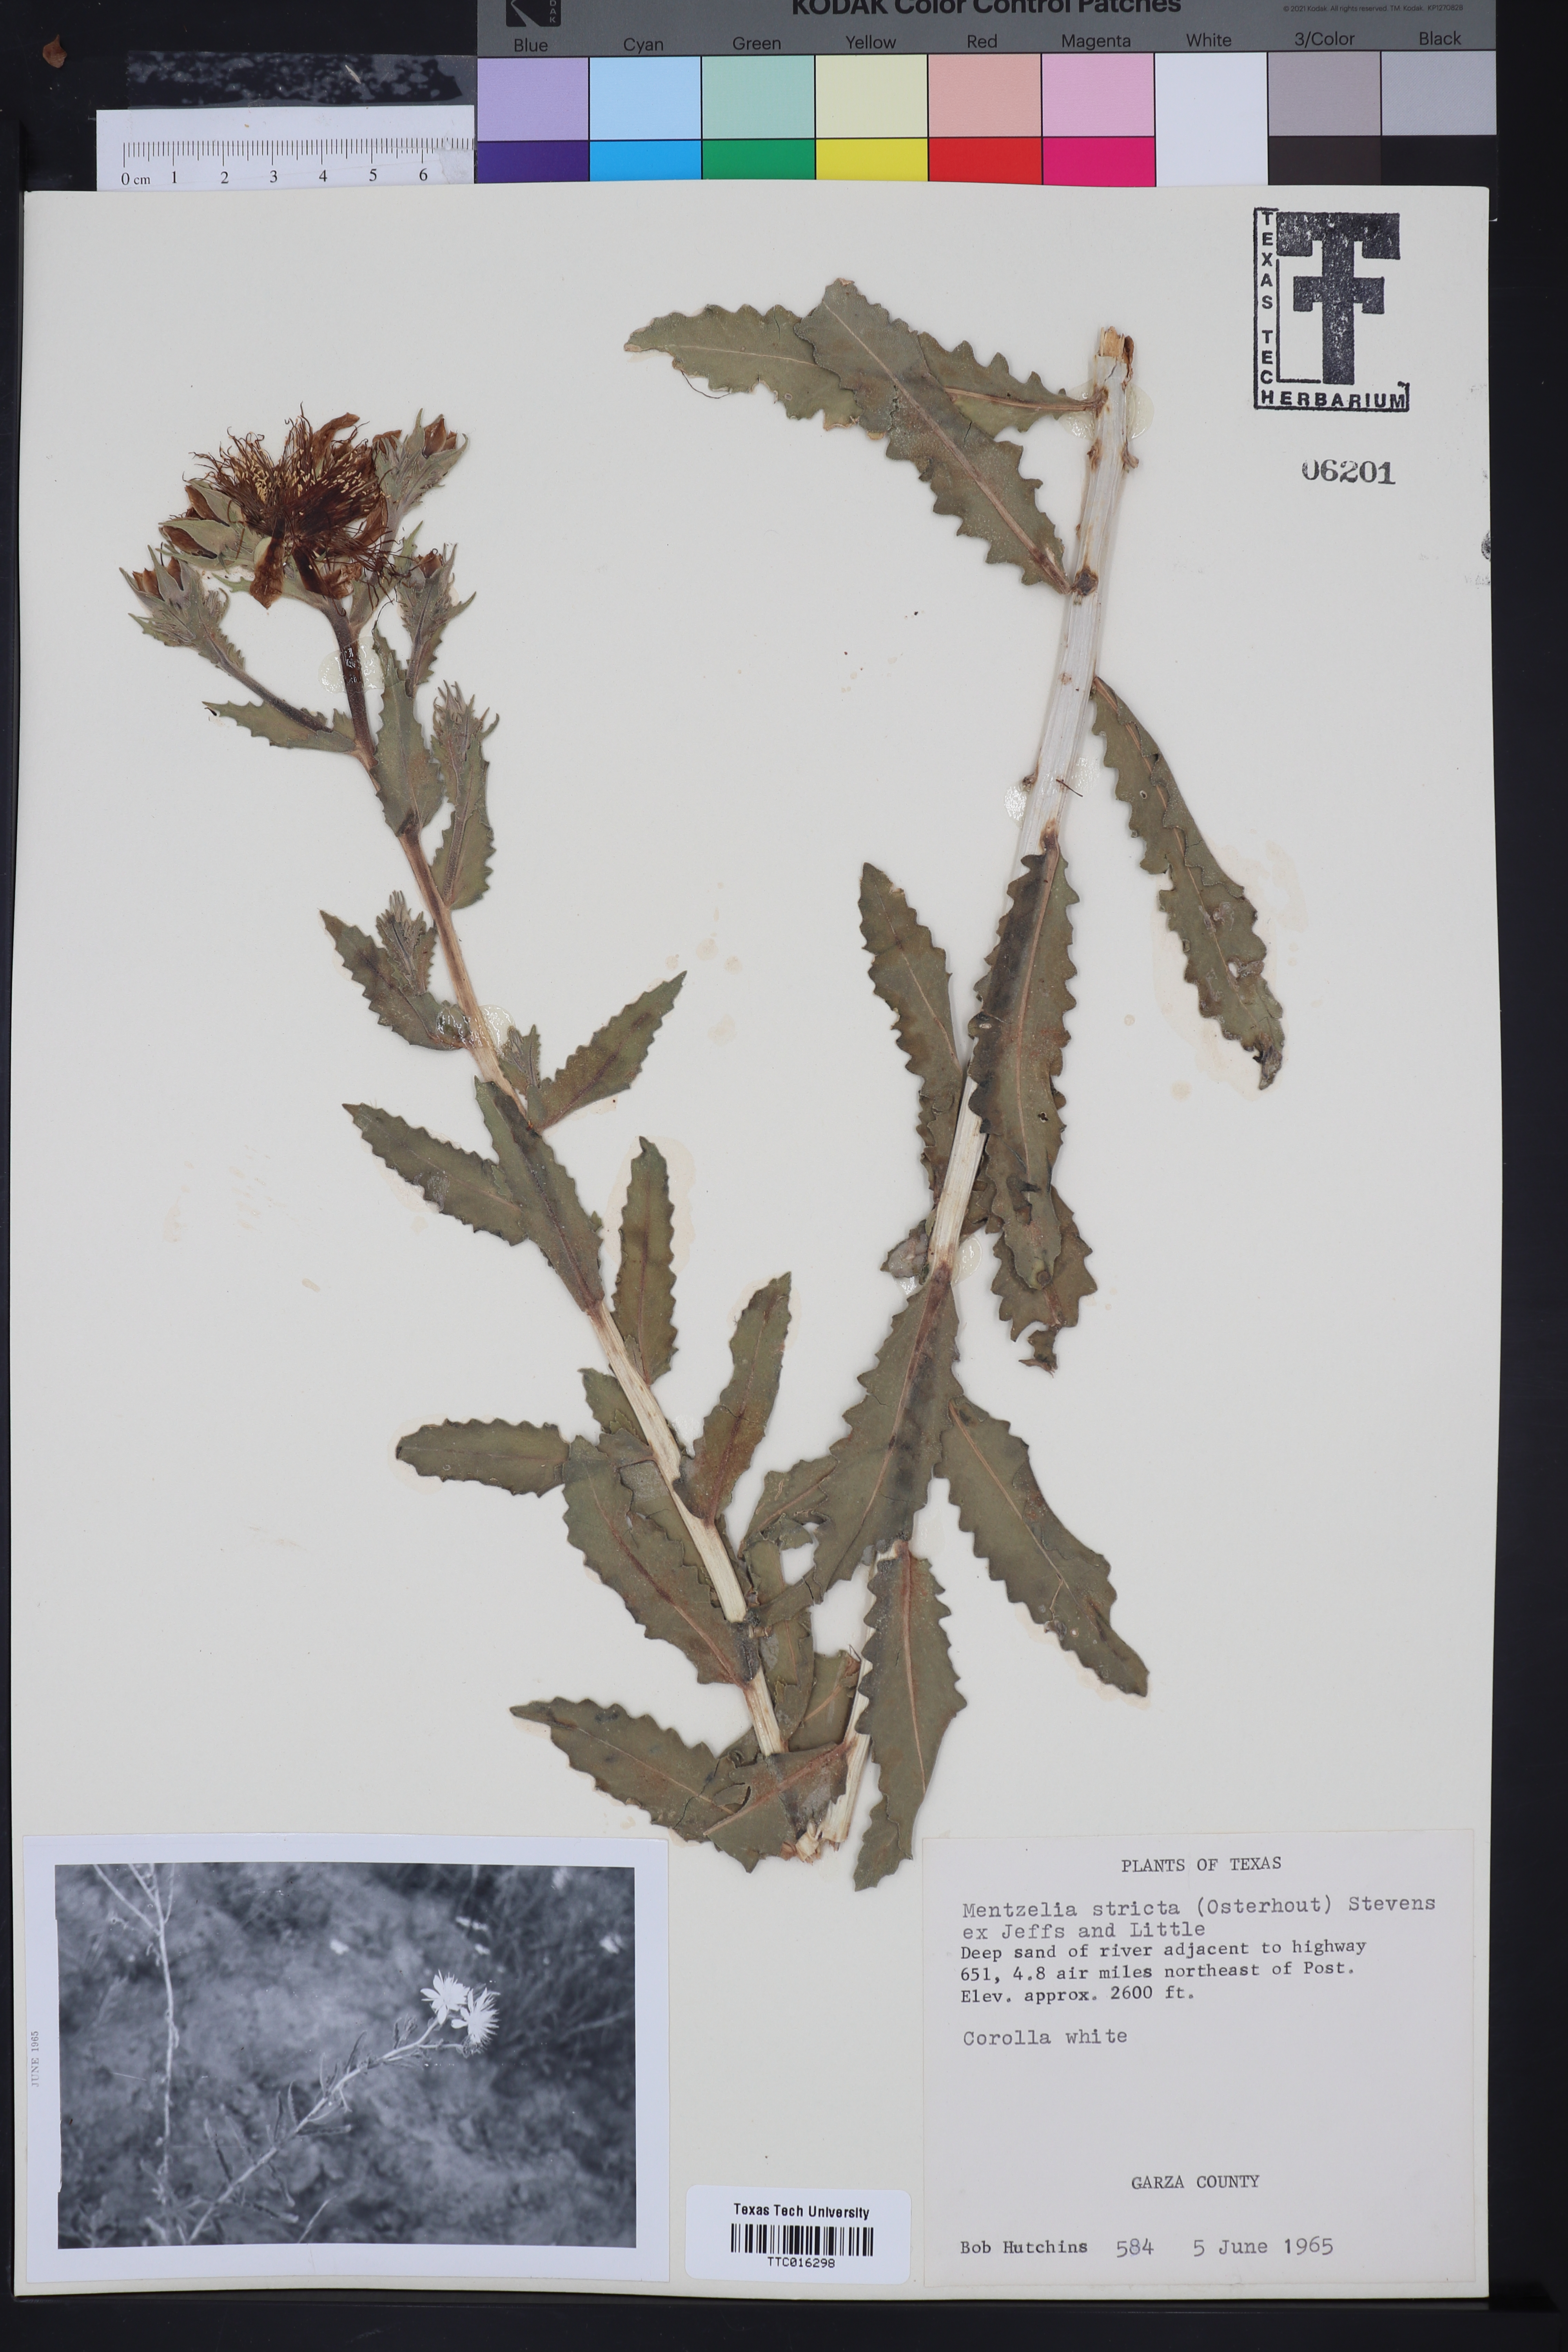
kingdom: Plantae
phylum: Tracheophyta
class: Magnoliopsida
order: Cornales
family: Loasaceae
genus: Mentzelia
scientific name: Mentzelia nuda
